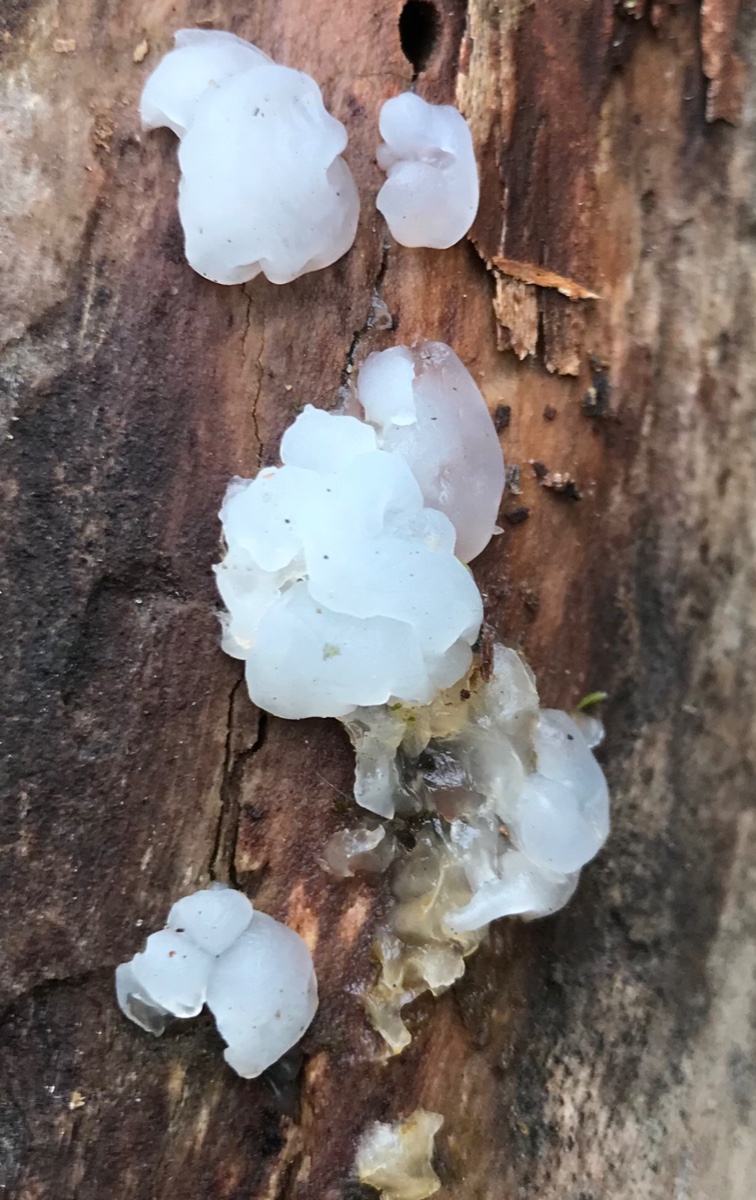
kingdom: Fungi
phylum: Basidiomycota
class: Agaricomycetes
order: Auriculariales
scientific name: Auriculariales
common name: judasøreordenen
